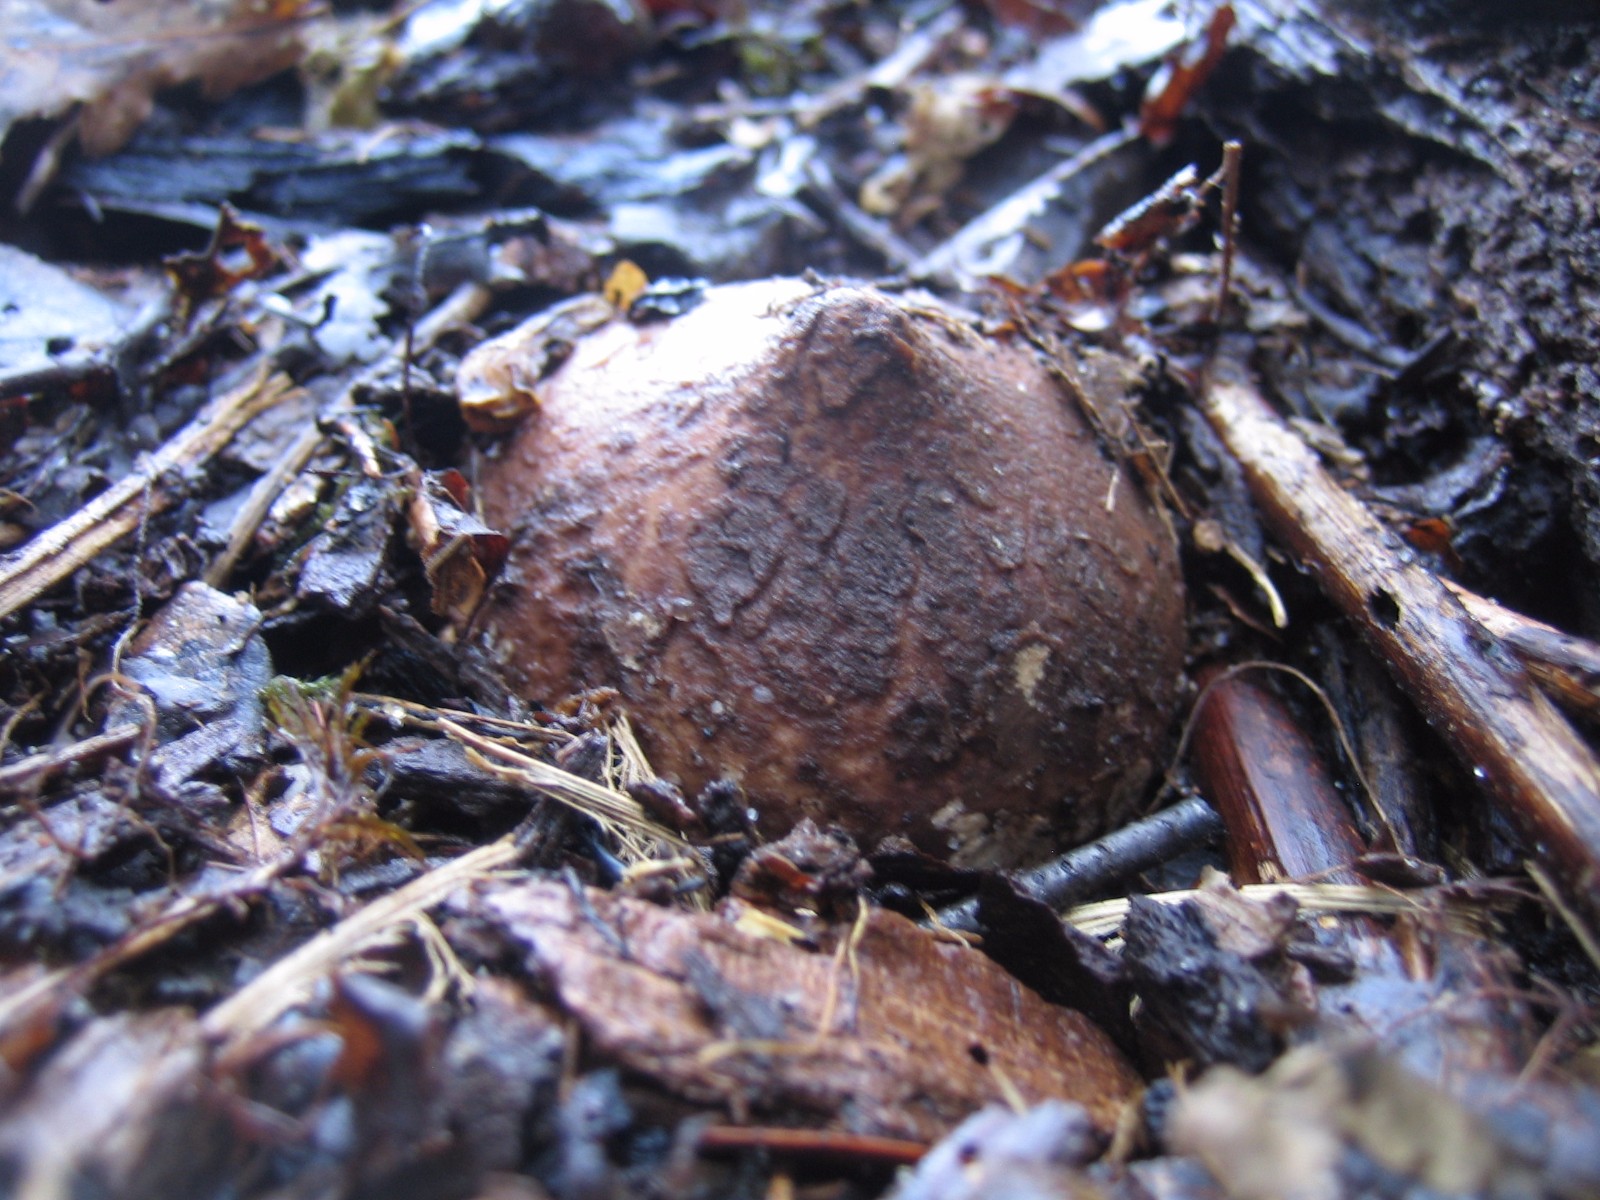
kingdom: Fungi
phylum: Basidiomycota
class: Agaricomycetes
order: Geastrales
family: Geastraceae
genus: Geastrum
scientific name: Geastrum michelianum
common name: kødet stjernebold
